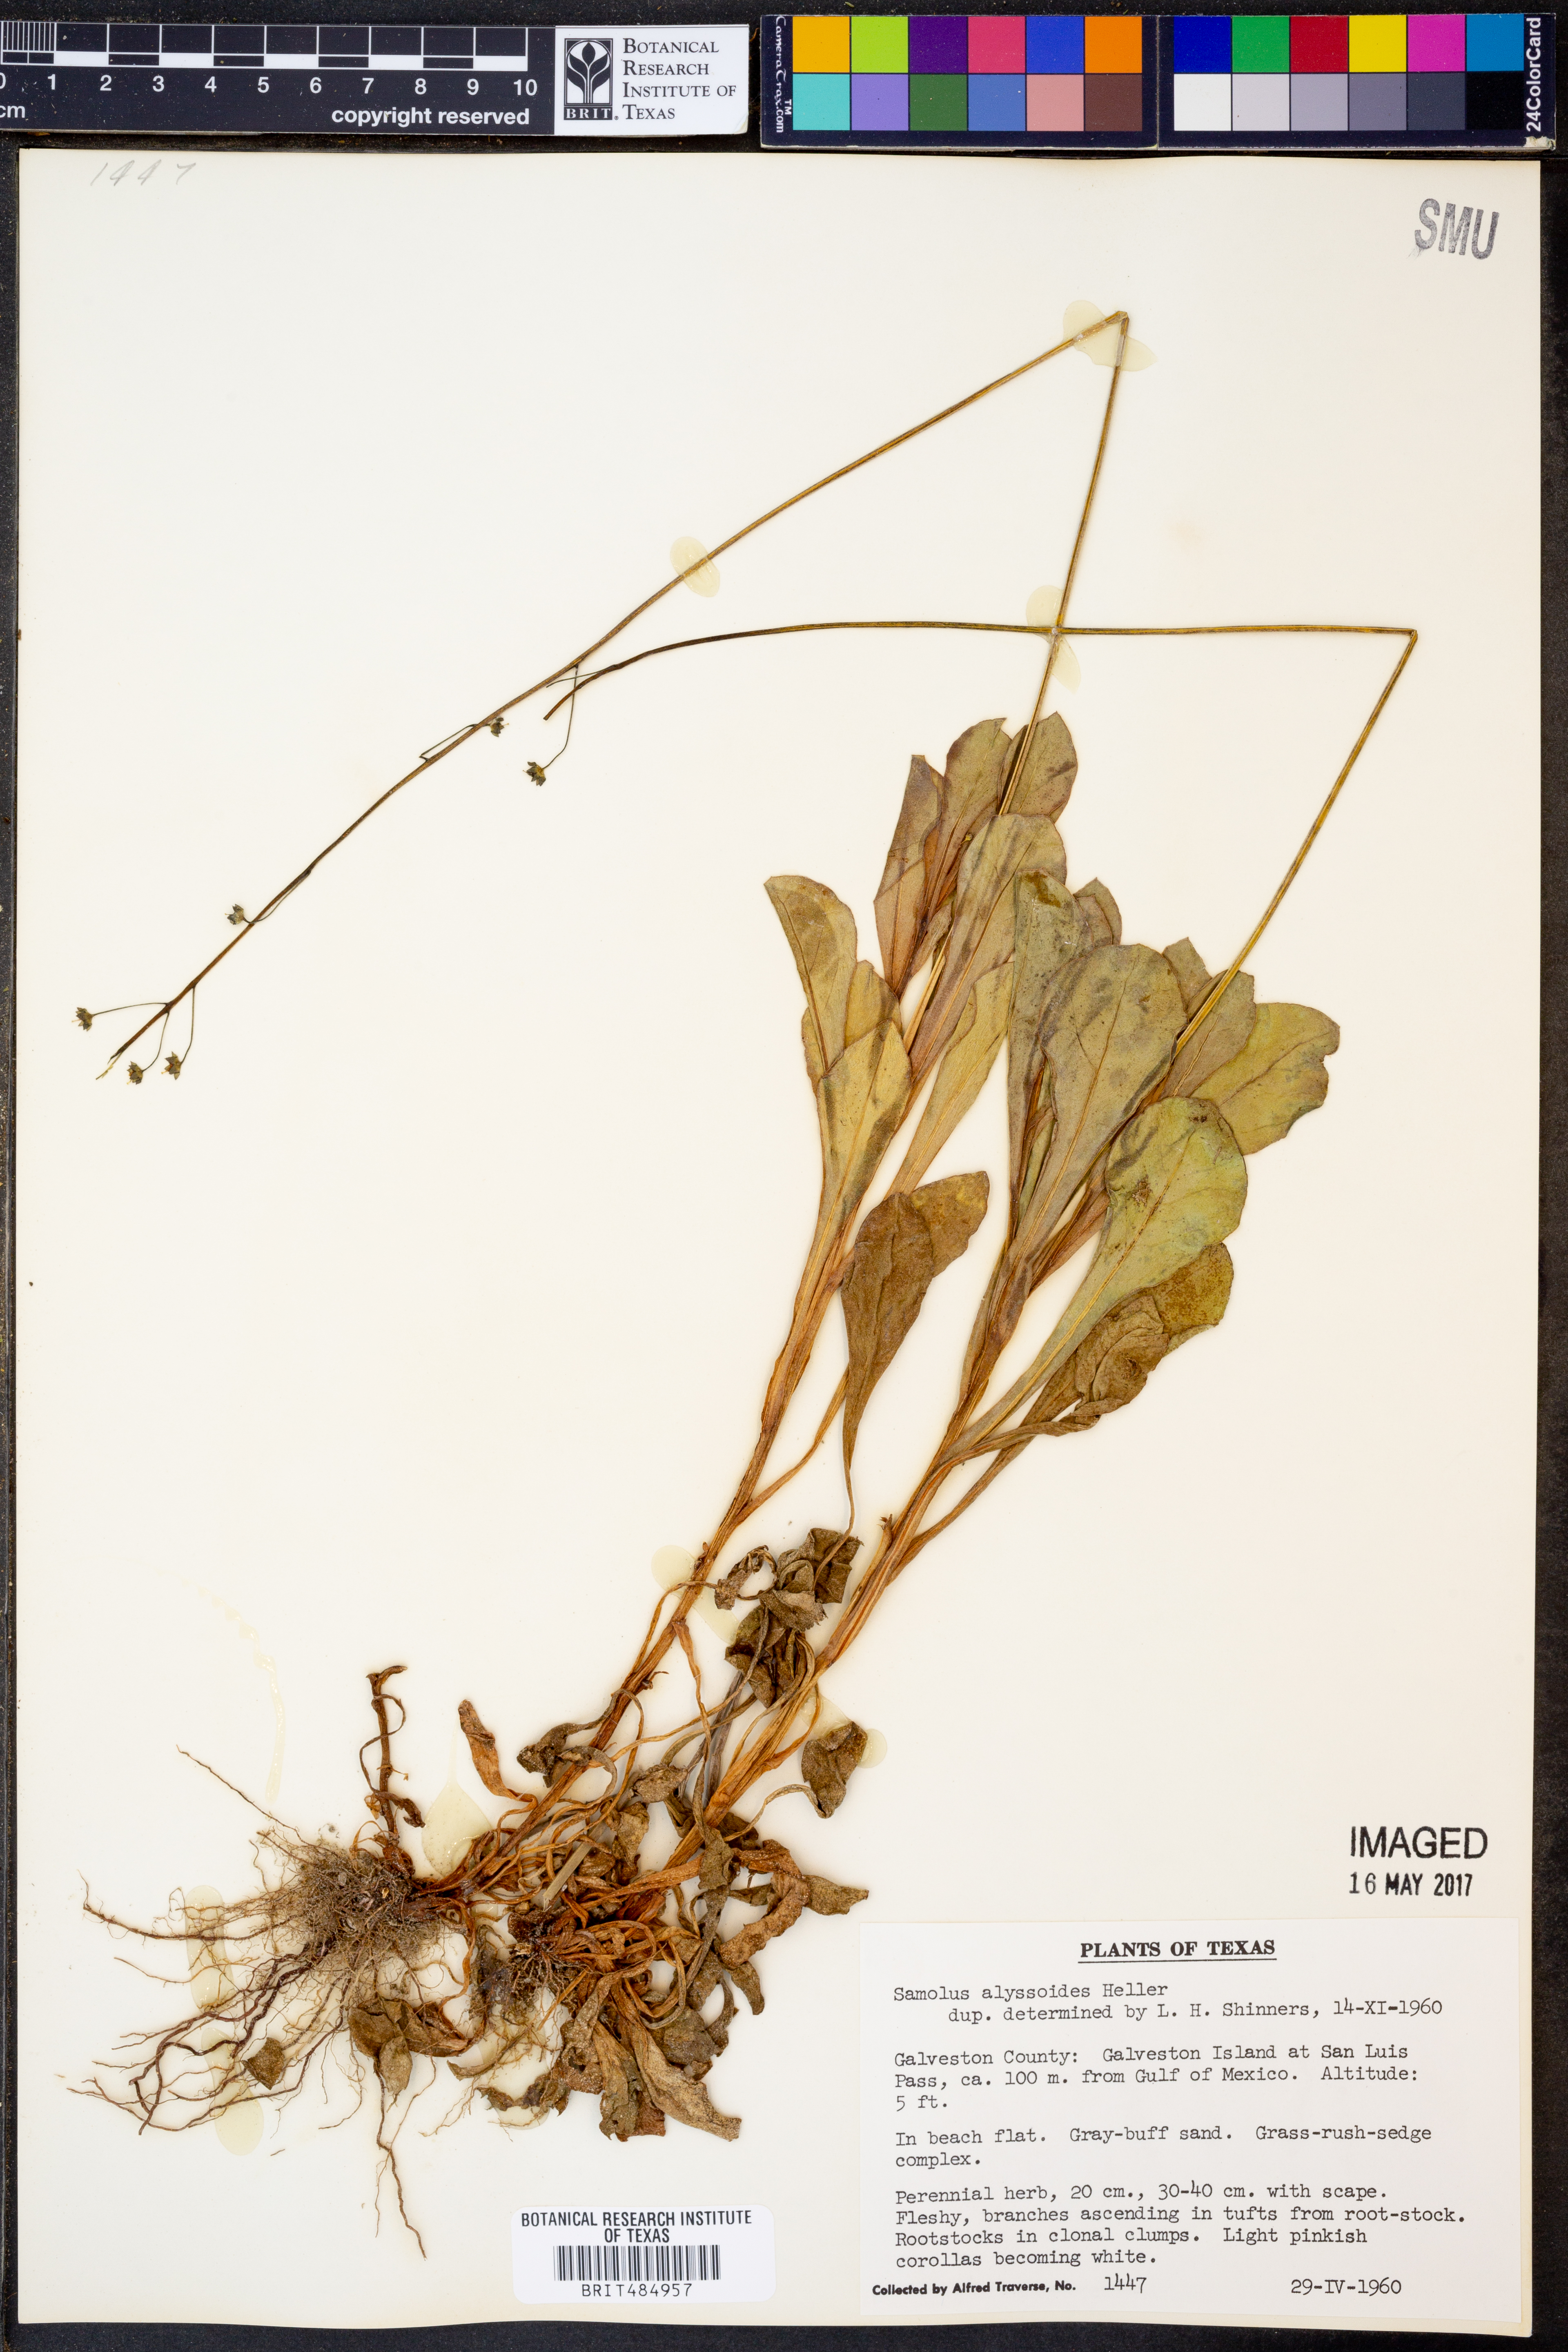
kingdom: Plantae
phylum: Tracheophyta
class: Magnoliopsida
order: Ericales
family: Primulaceae
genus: Samolus
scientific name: Samolus ebracteatus
